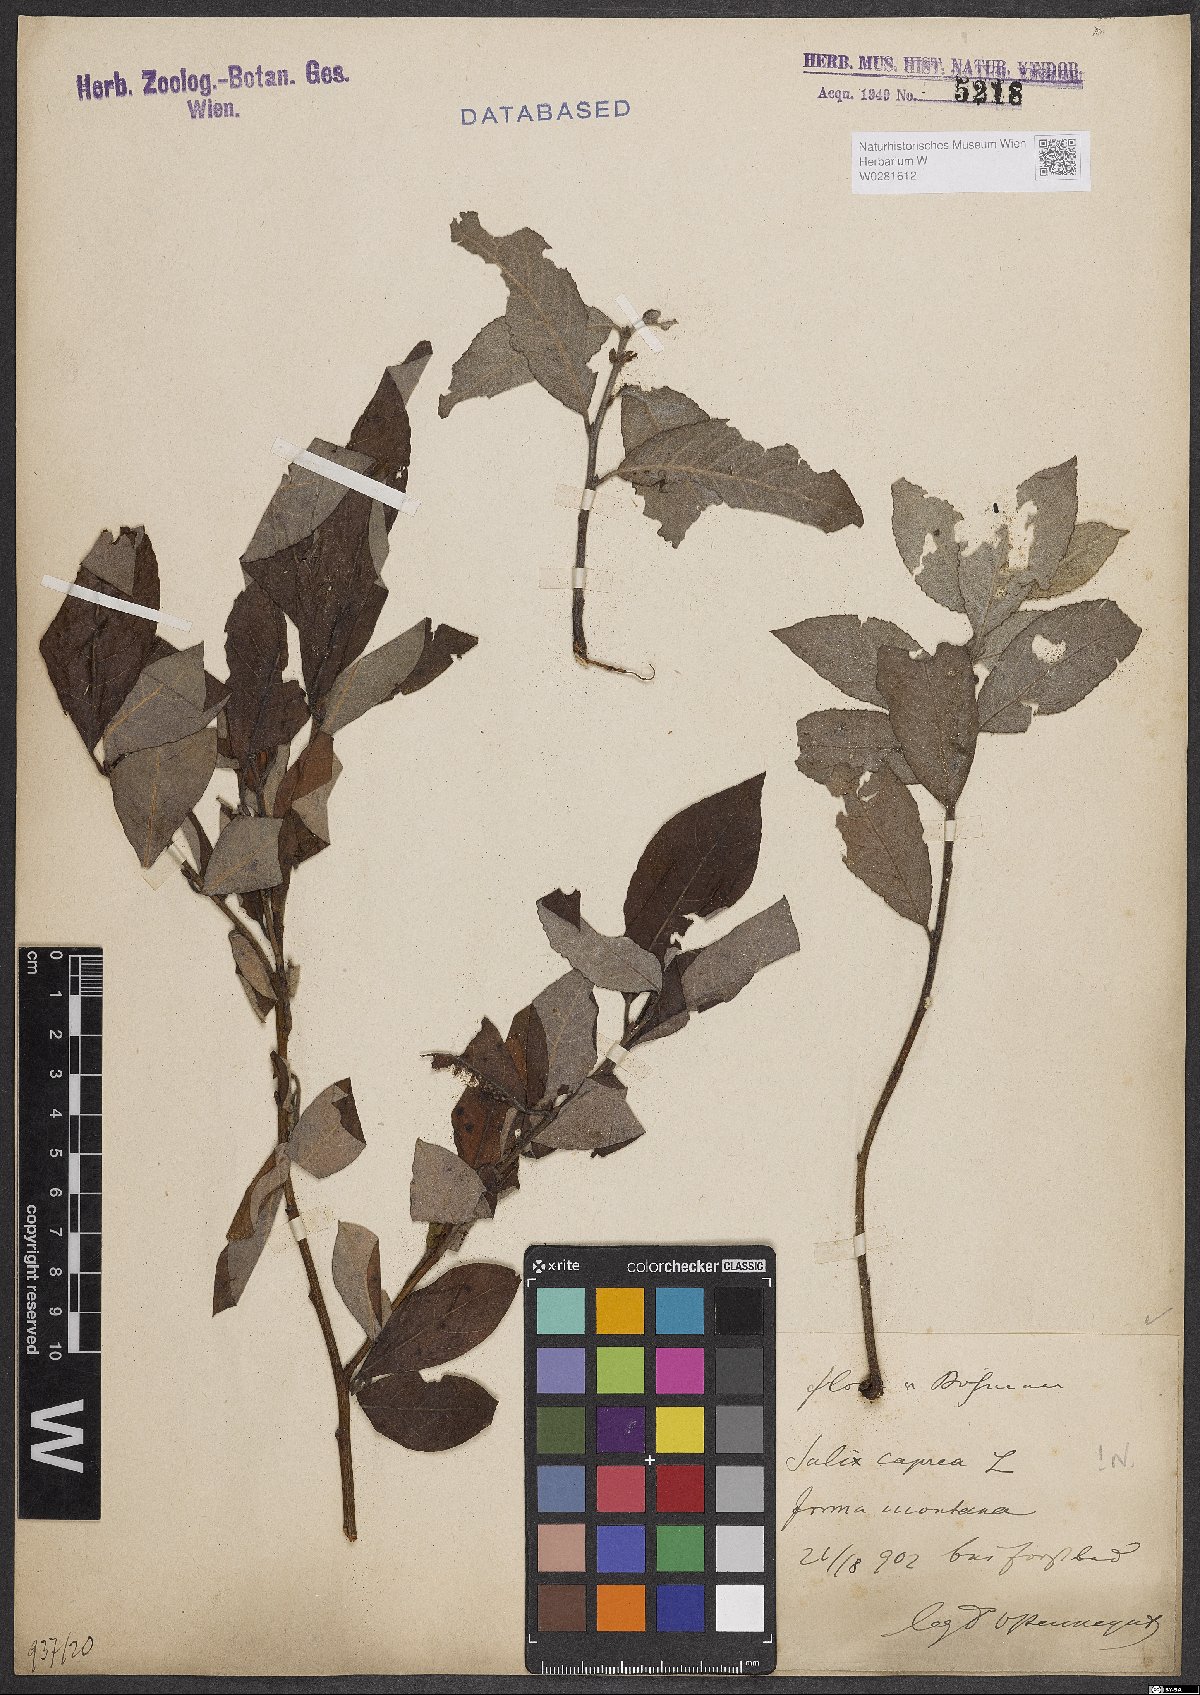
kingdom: Plantae
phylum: Tracheophyta
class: Magnoliopsida
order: Malpighiales
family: Salicaceae
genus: Salix
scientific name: Salix caprea
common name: Goat willow
